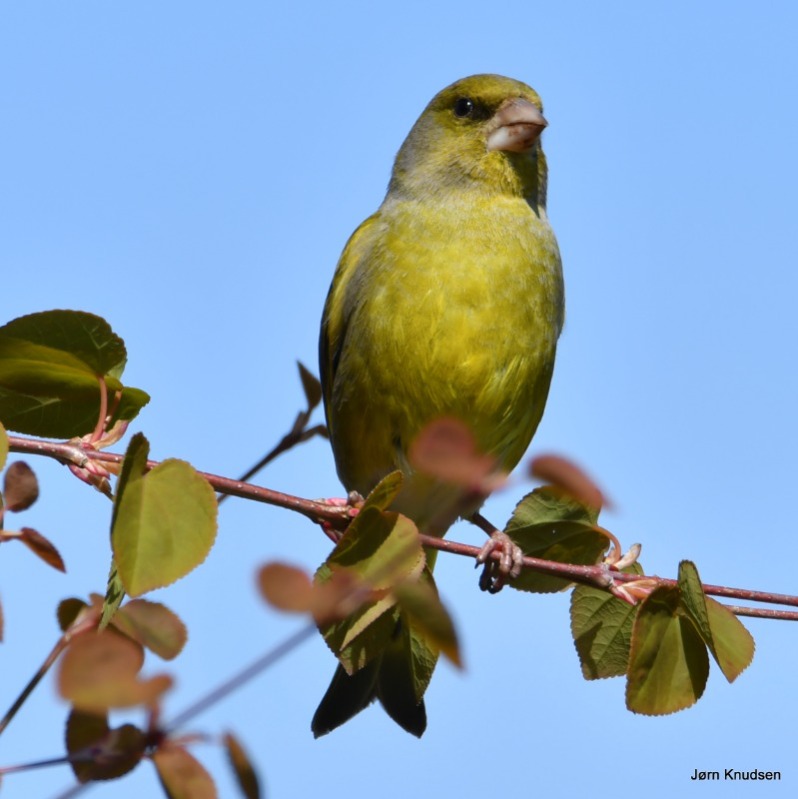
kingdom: Plantae
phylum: Tracheophyta
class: Liliopsida
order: Poales
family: Poaceae
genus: Chloris
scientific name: Chloris chloris
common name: Grønirisk
